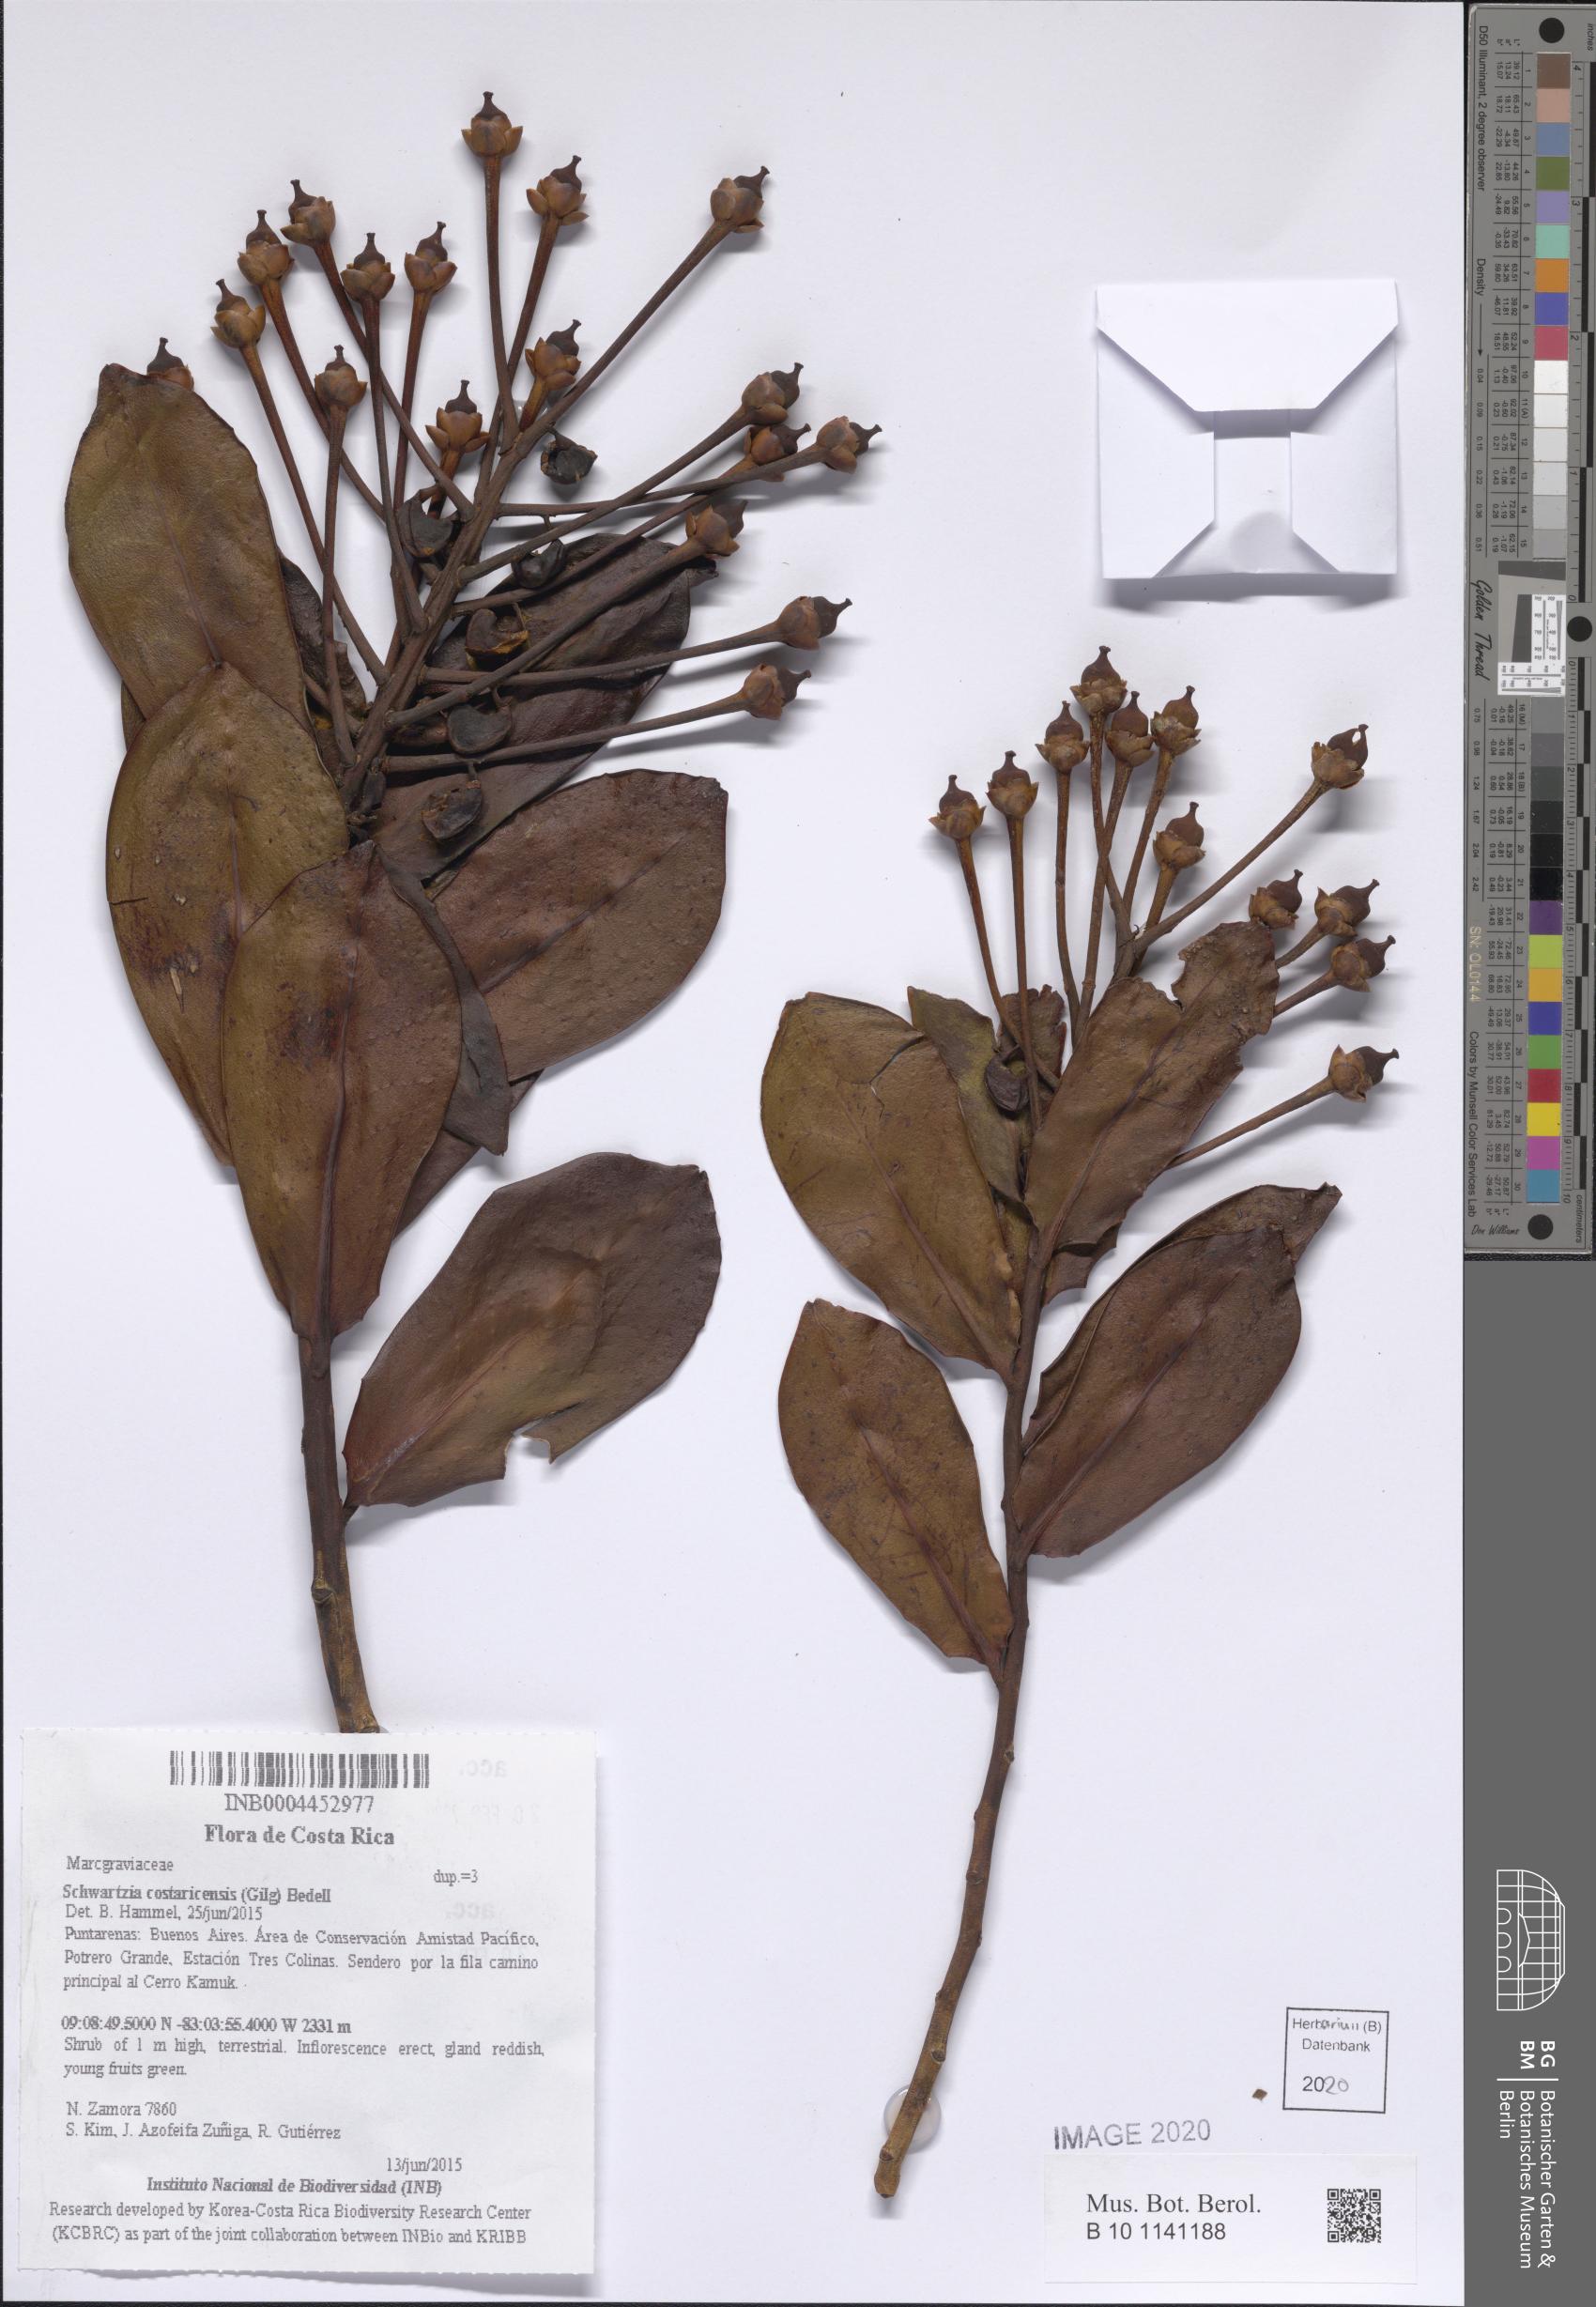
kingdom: Plantae
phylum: Tracheophyta
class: Magnoliopsida
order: Ericales
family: Marcgraviaceae
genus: Schwartzia
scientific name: Schwartzia costaricensis
